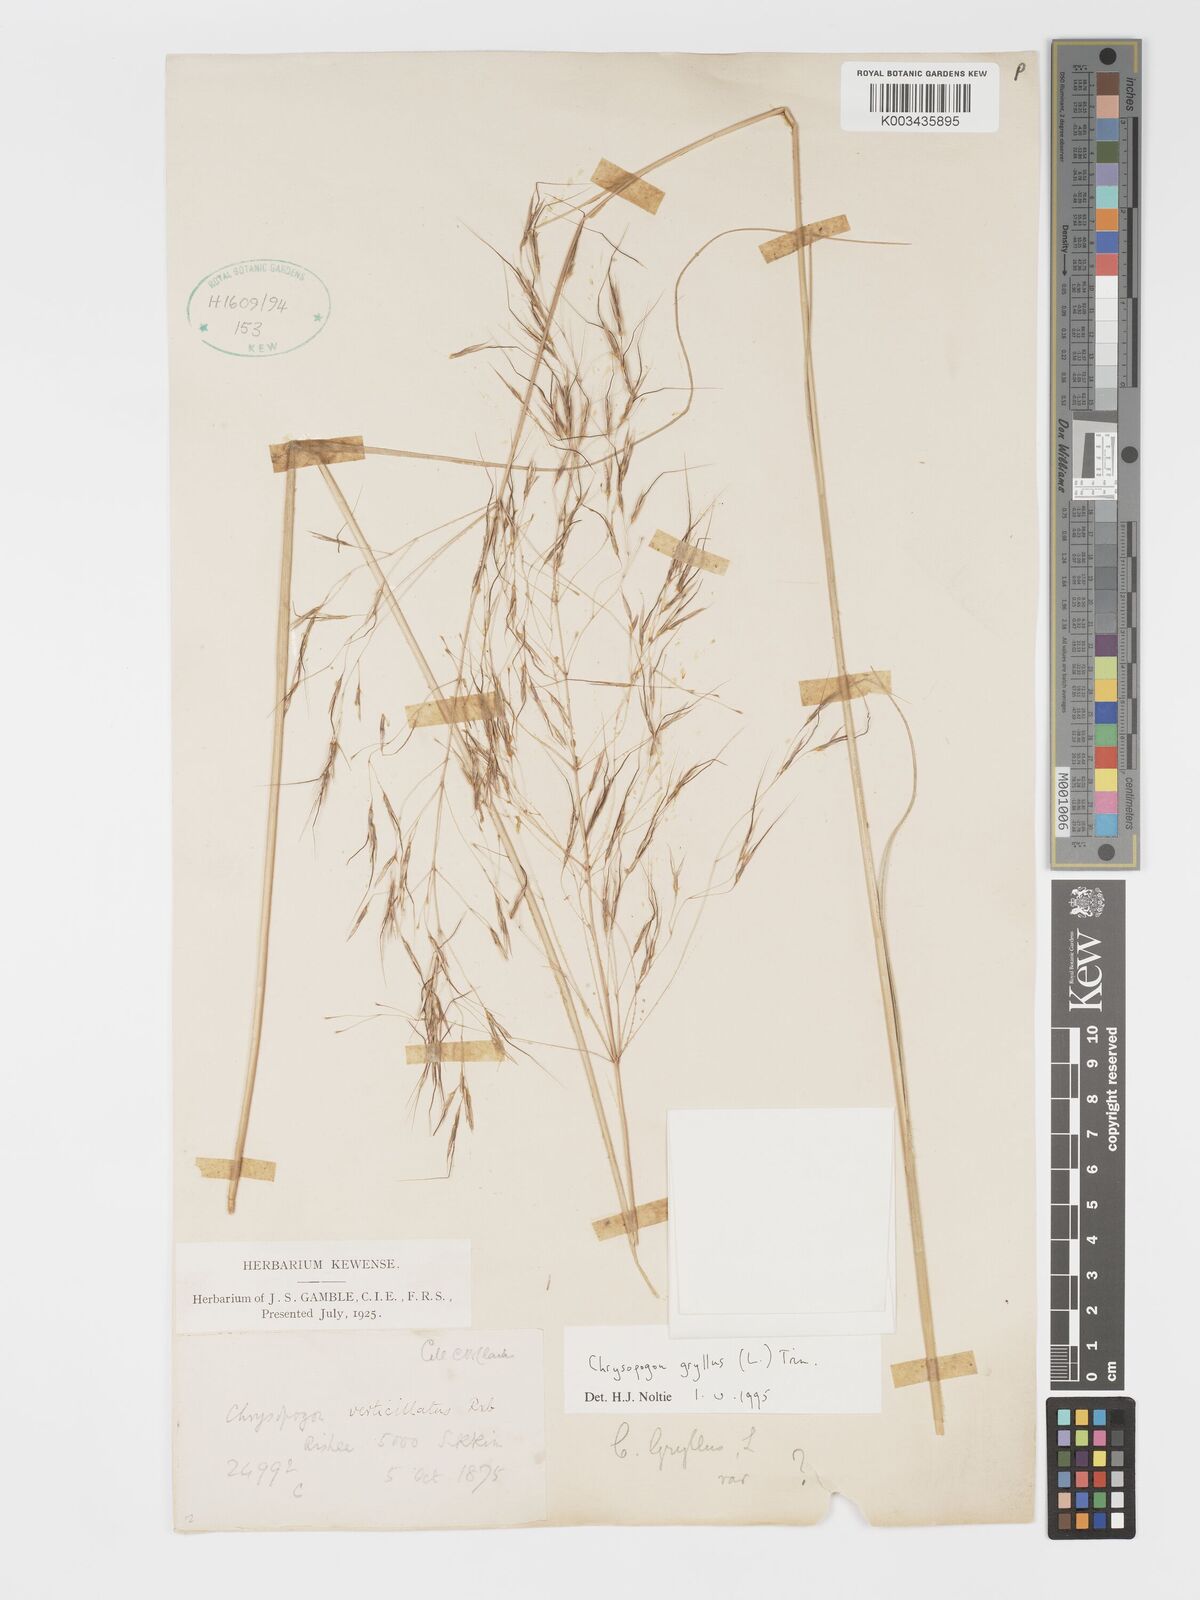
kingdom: Plantae
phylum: Tracheophyta
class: Liliopsida
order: Poales
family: Poaceae
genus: Chrysopogon
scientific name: Chrysopogon gryllus
